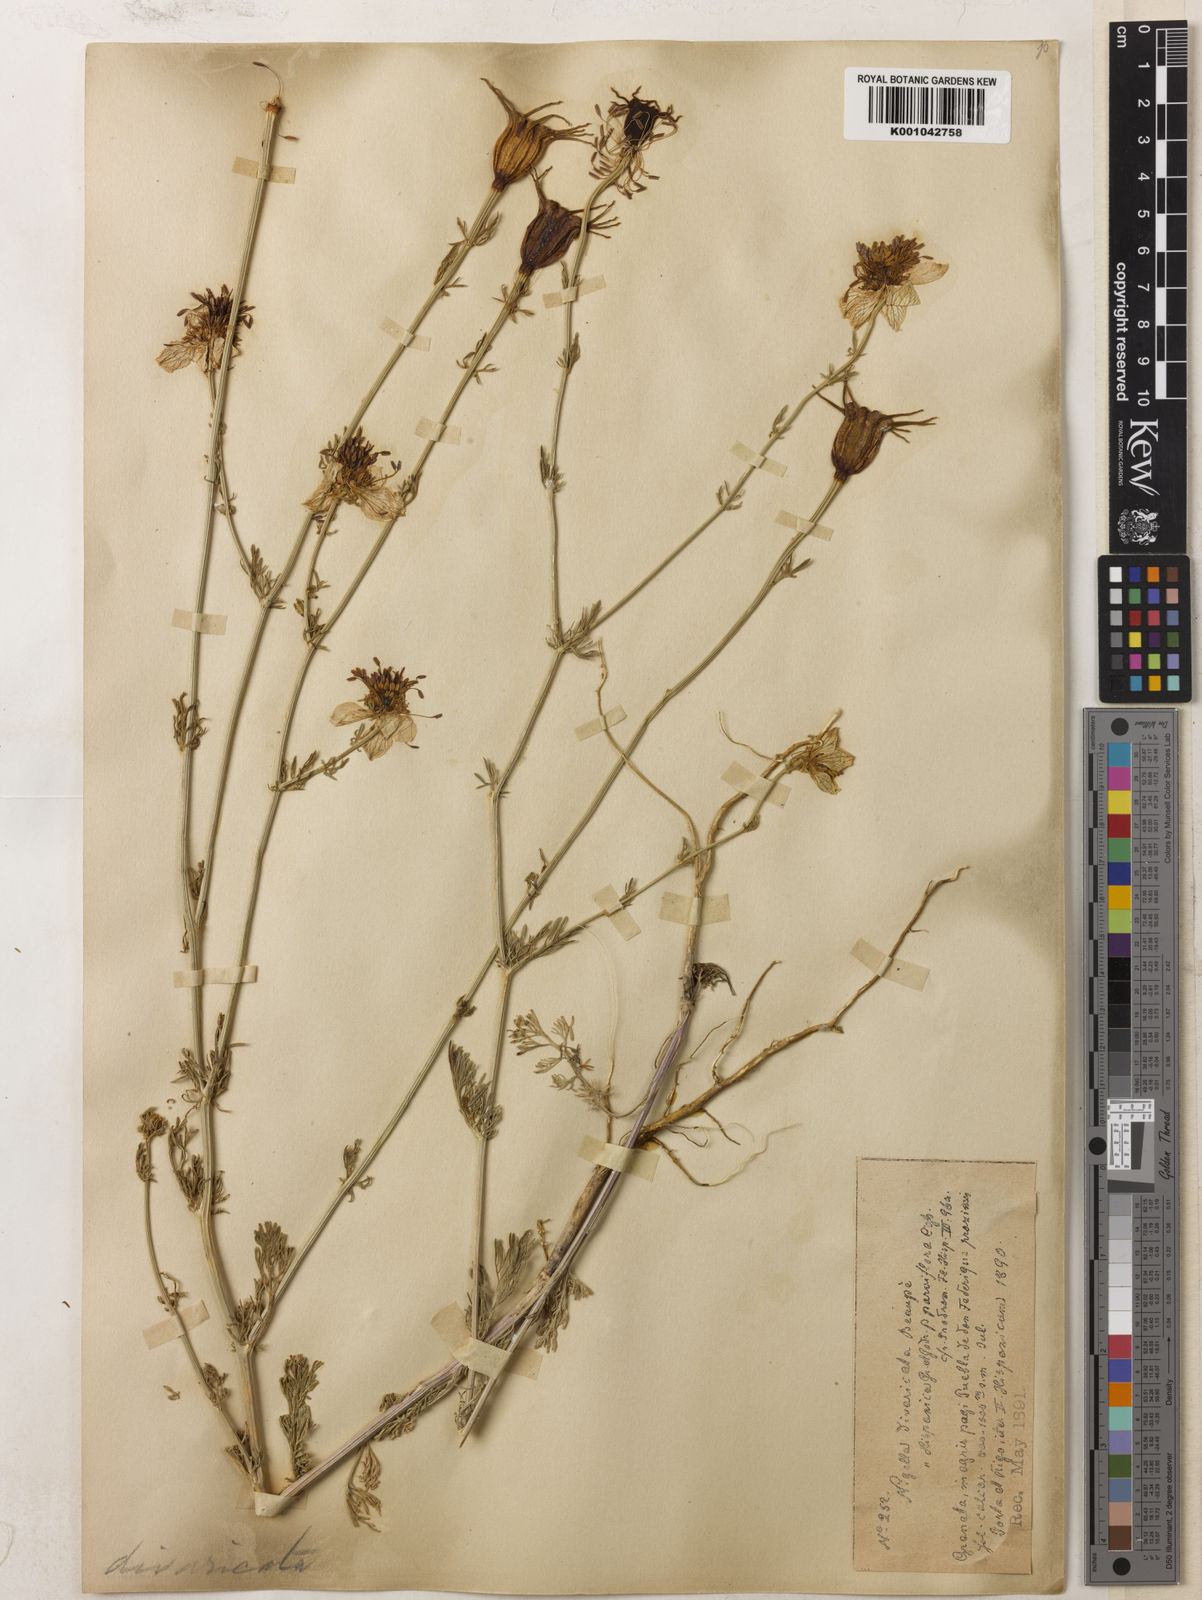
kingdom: Plantae
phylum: Tracheophyta
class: Magnoliopsida
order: Ranunculales
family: Ranunculaceae
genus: Nigella
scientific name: Nigella hispanica
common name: Fennel-flower
